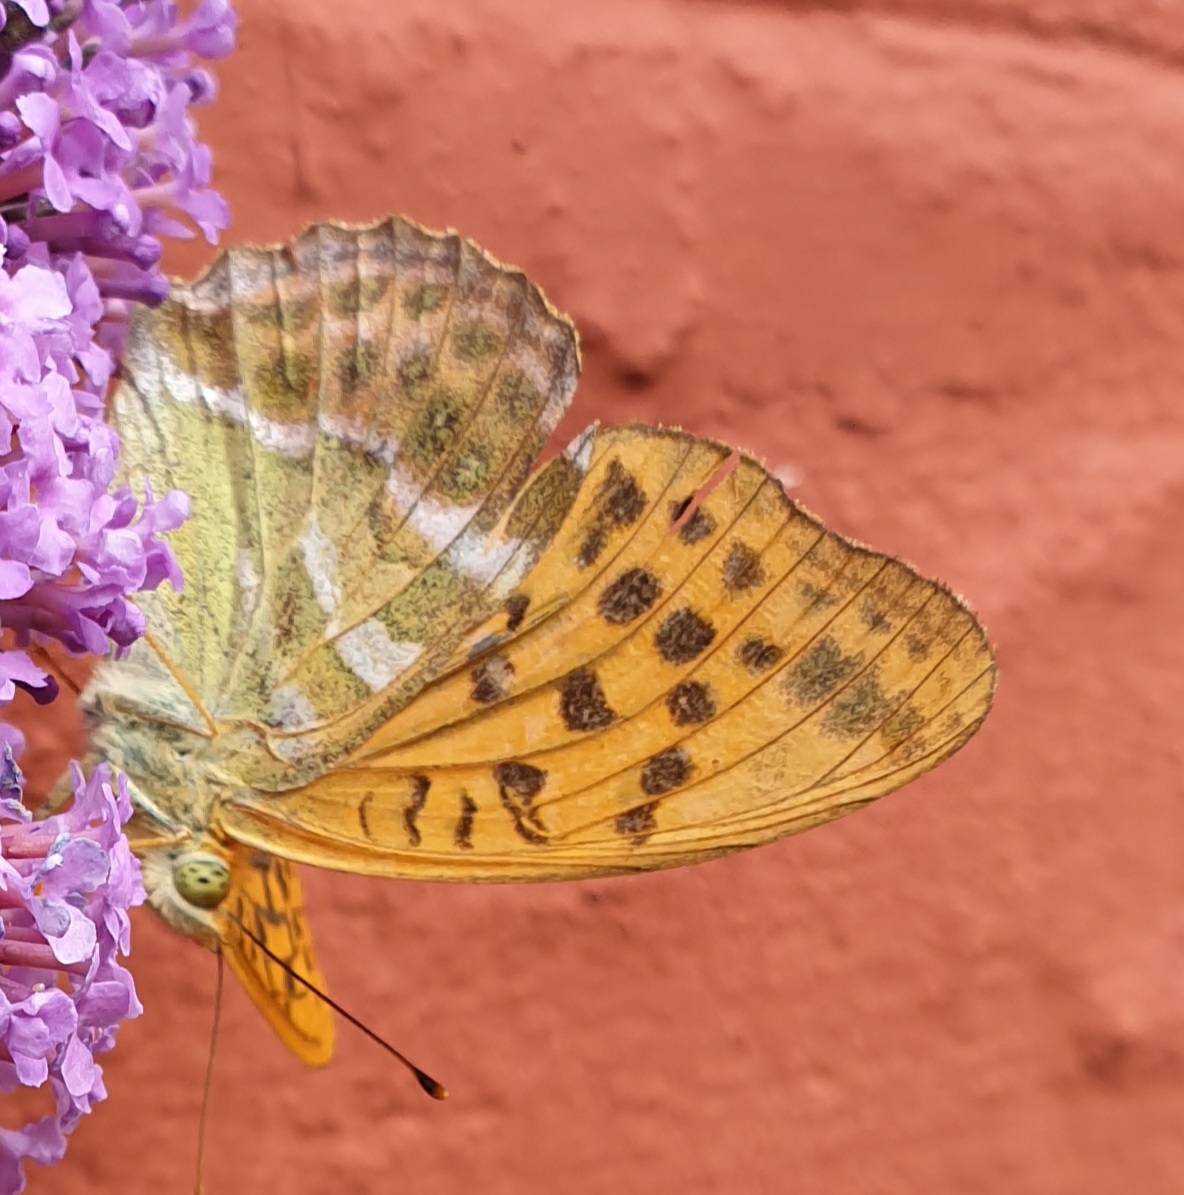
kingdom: Animalia
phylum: Arthropoda
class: Insecta
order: Lepidoptera
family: Nymphalidae
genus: Argynnis
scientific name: Argynnis paphia
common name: Kejserkåbe
